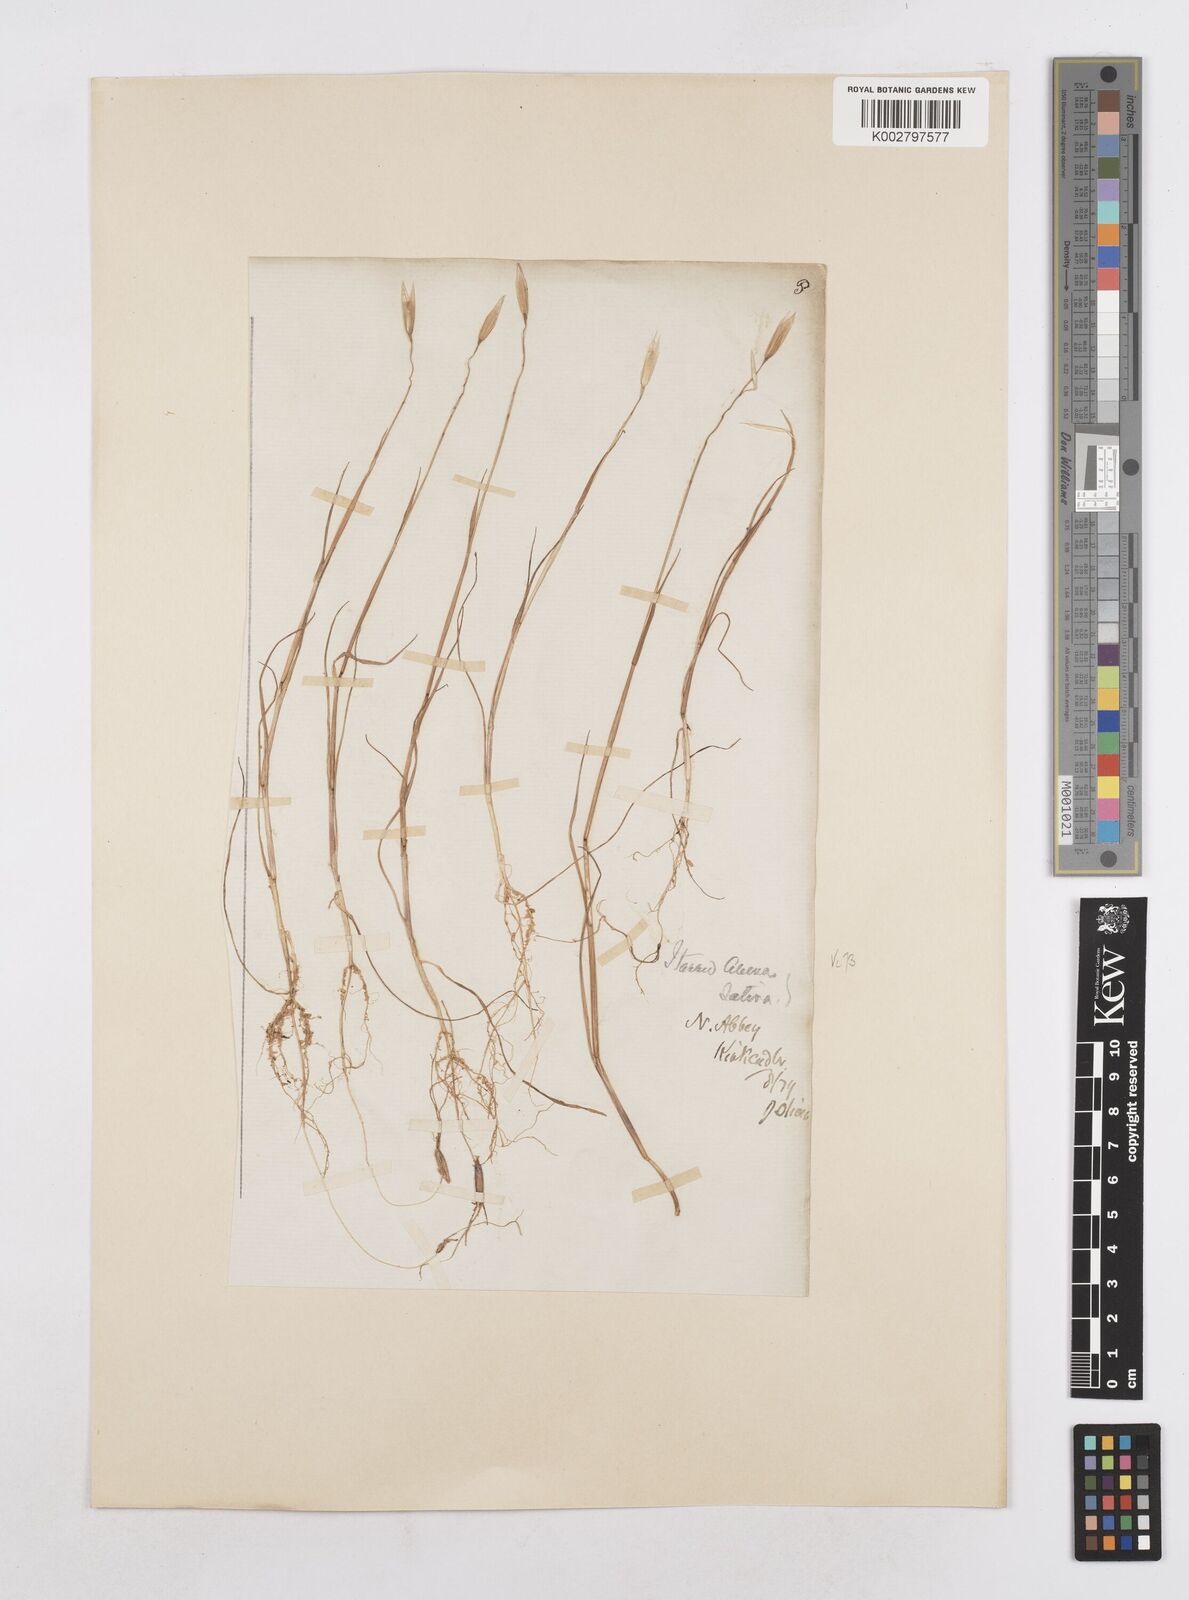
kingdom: Plantae
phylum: Tracheophyta
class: Liliopsida
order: Poales
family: Poaceae
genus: Avena
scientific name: Avena sativa
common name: Oat
